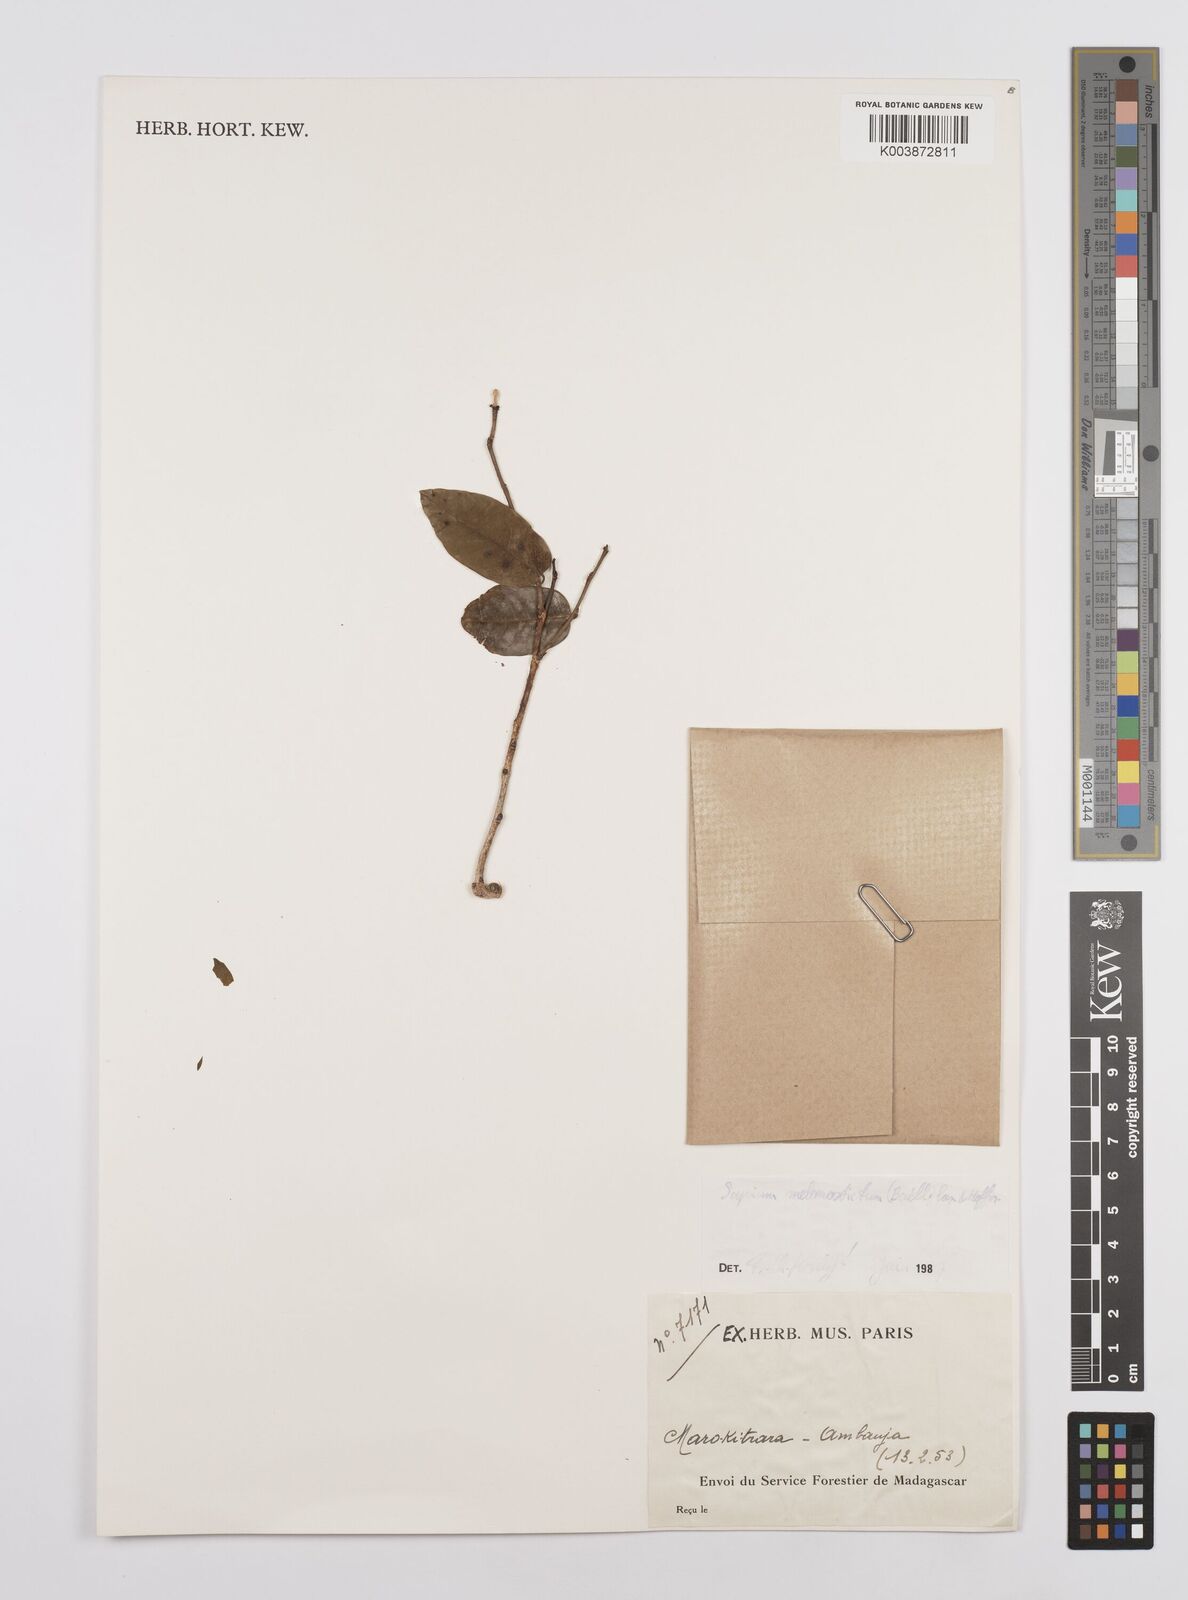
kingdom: Plantae
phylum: Tracheophyta
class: Magnoliopsida
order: Malpighiales
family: Euphorbiaceae
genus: Sclerocroton
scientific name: Sclerocroton melanostictus
